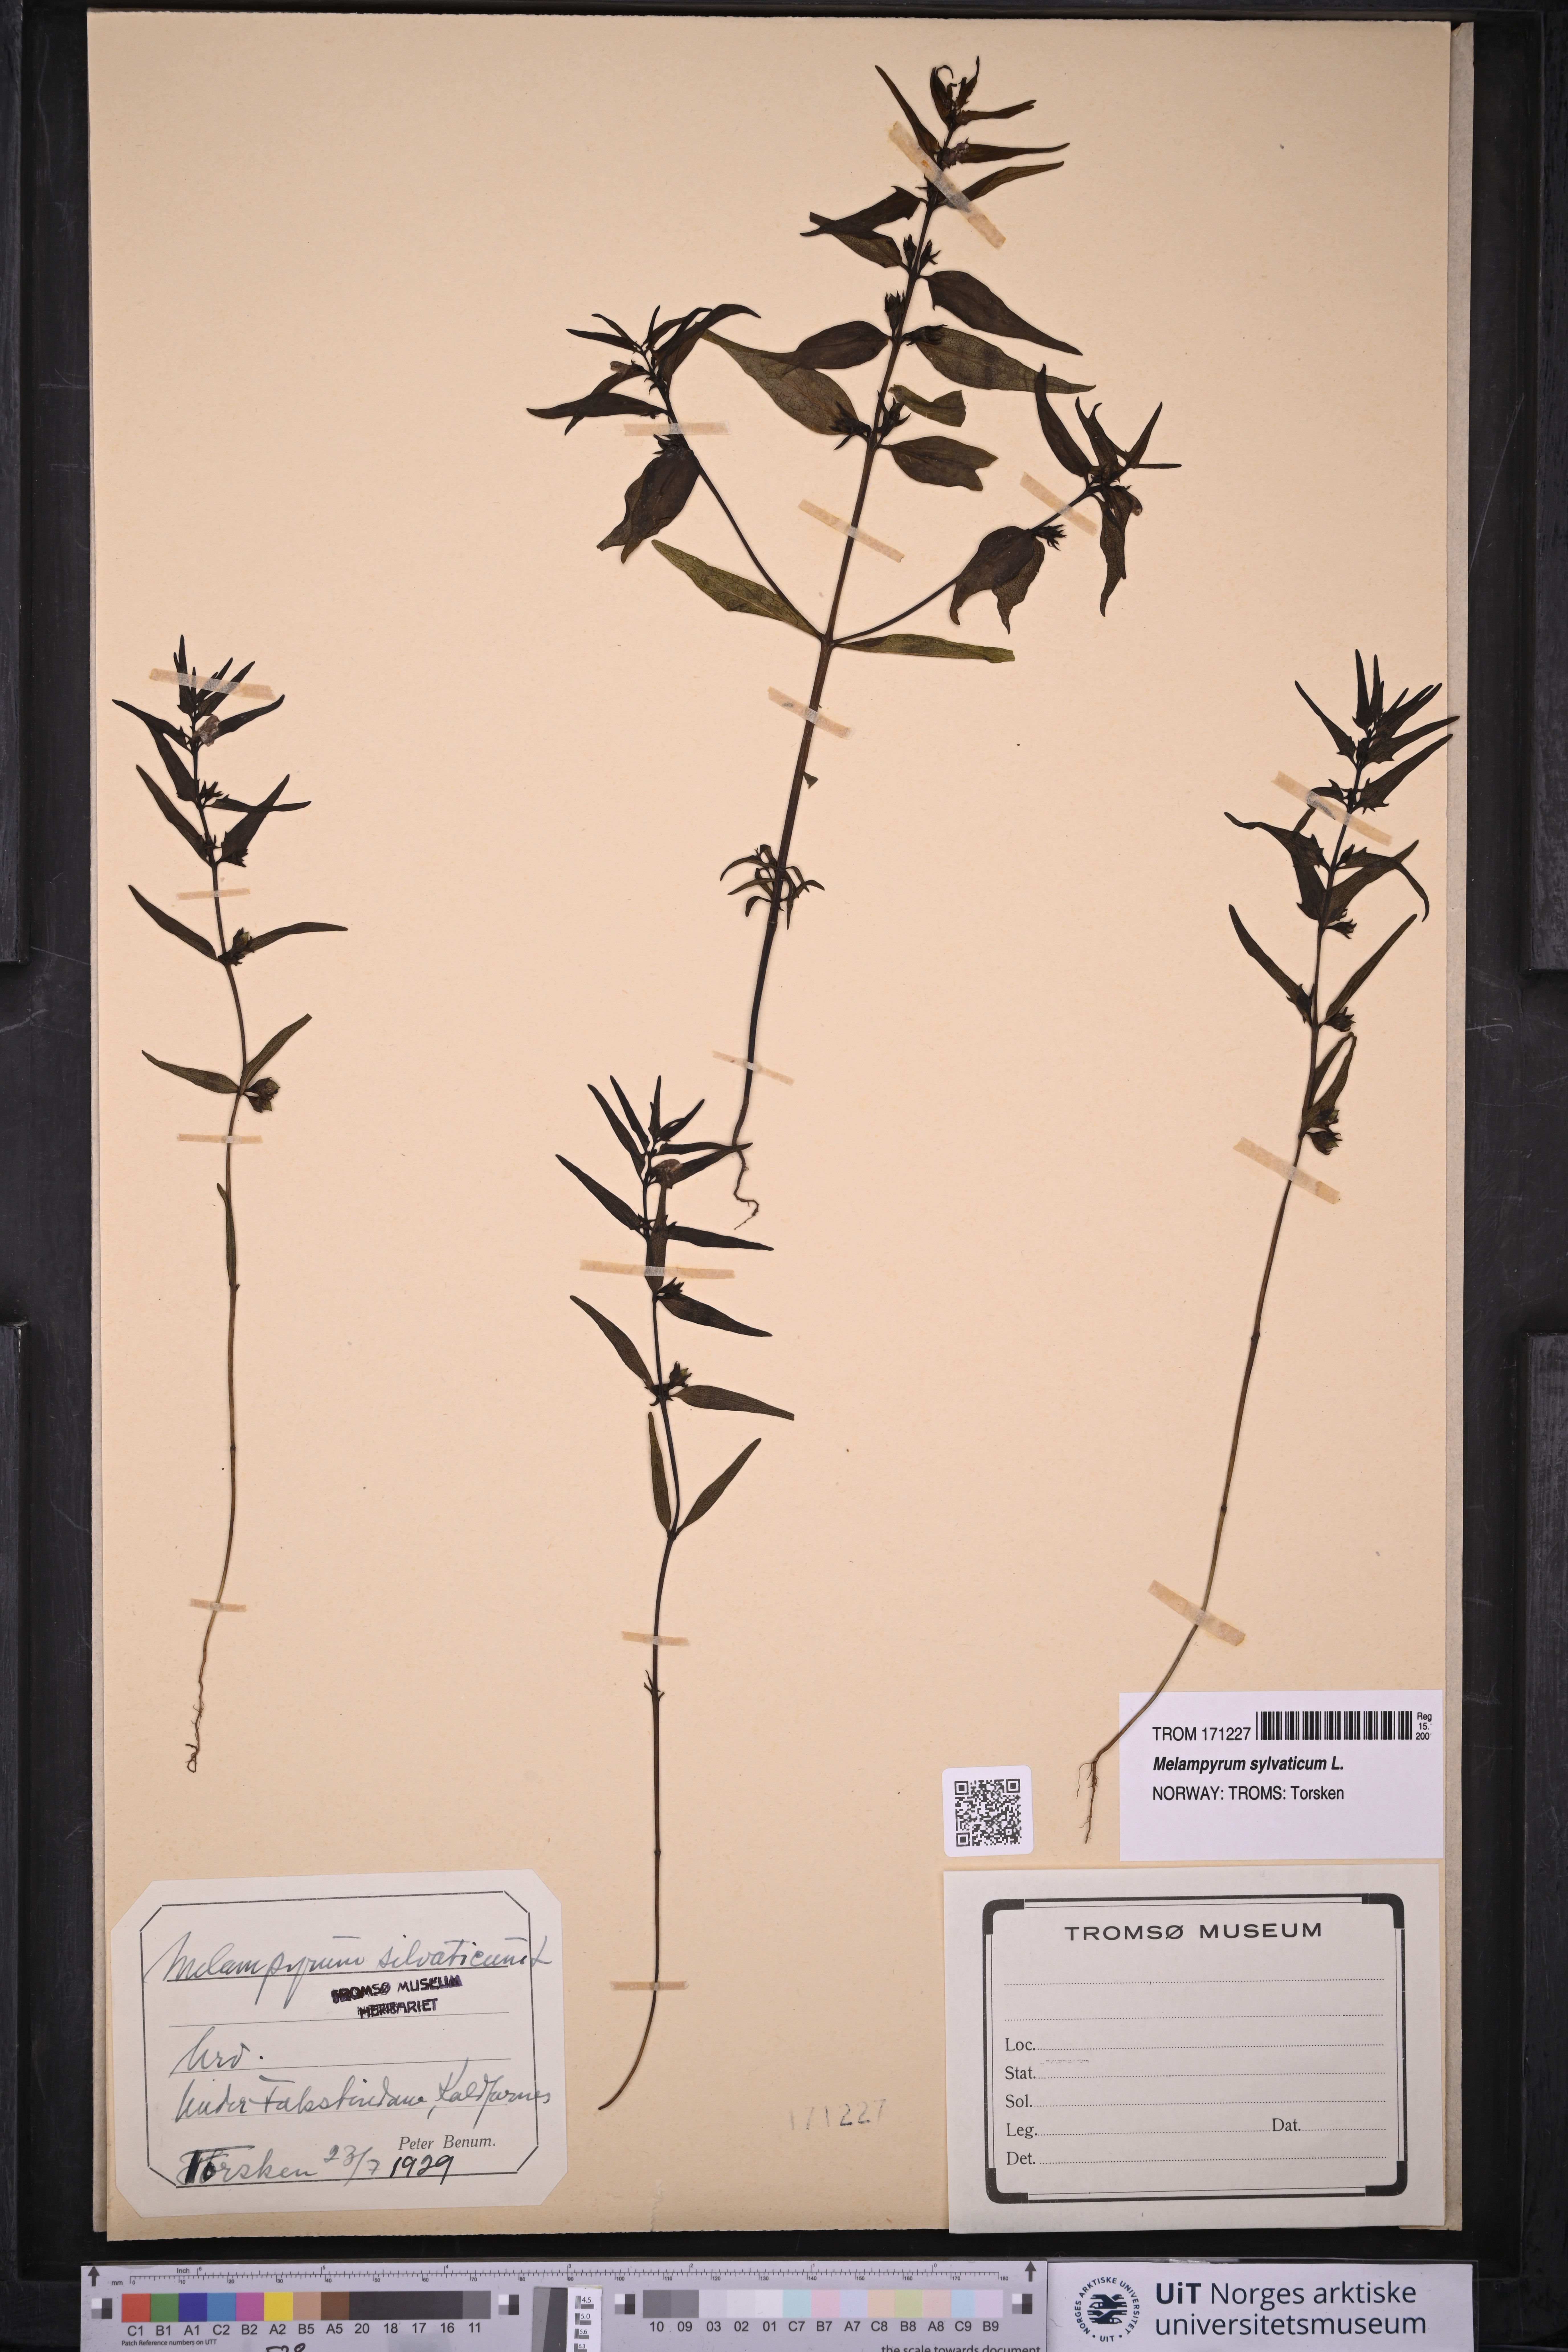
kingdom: Plantae
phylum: Tracheophyta
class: Magnoliopsida
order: Lamiales
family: Orobanchaceae
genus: Melampyrum
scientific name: Melampyrum sylvaticum
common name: Small cow-wheat
